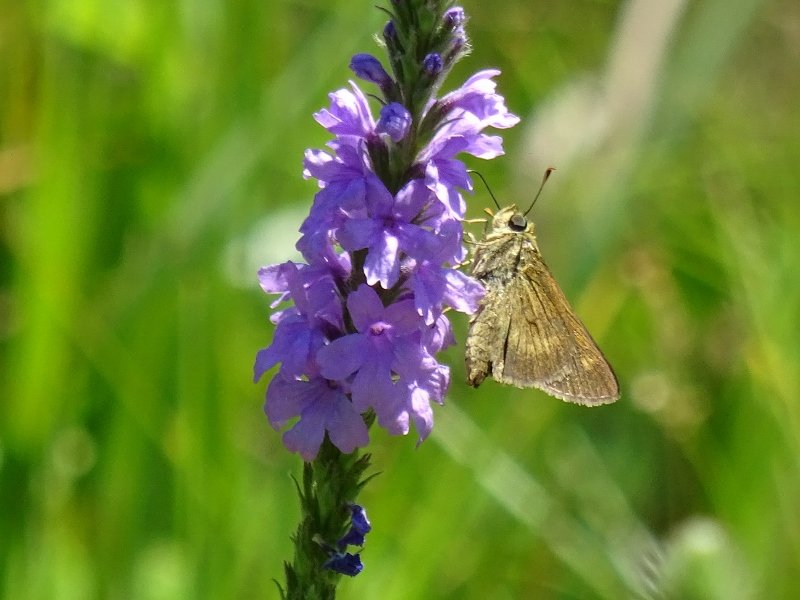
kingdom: Animalia
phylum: Arthropoda
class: Insecta
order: Lepidoptera
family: Hesperiidae
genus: Polites
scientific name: Polites egeremet
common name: Northern Broken-Dash
